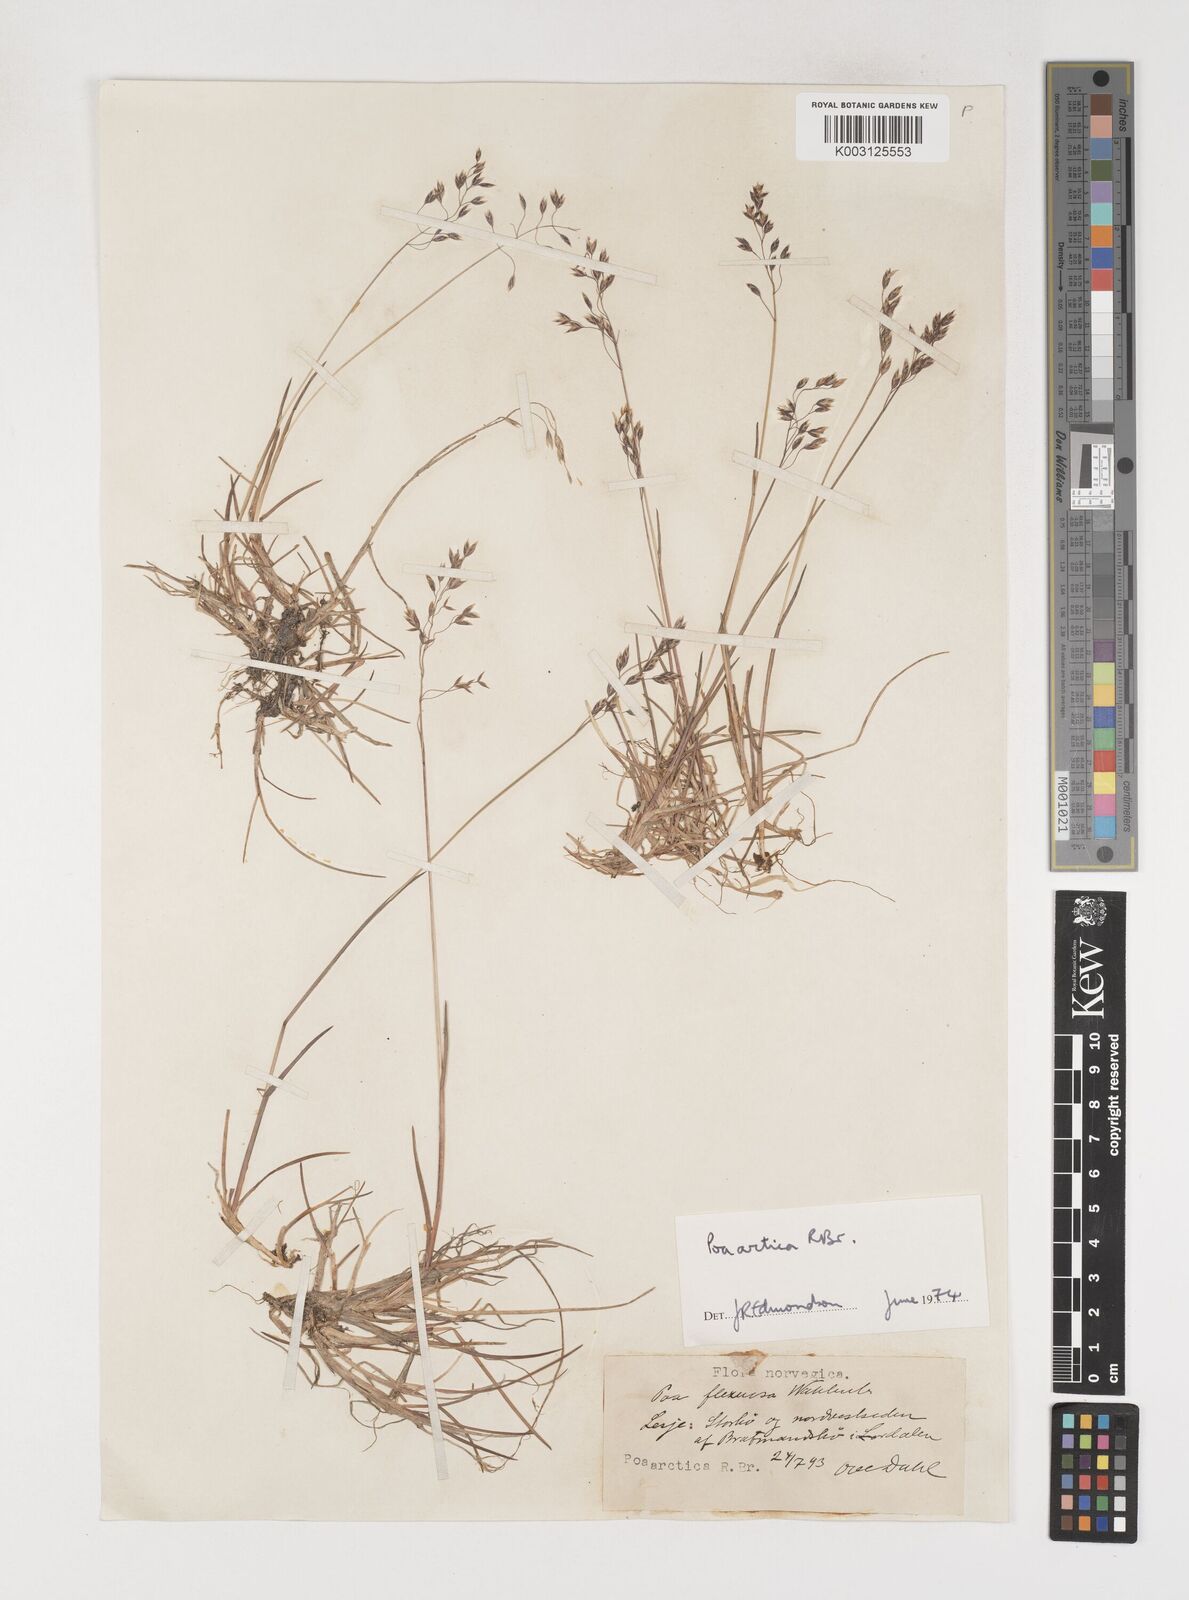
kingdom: Plantae
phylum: Tracheophyta
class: Liliopsida
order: Poales
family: Poaceae
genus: Poa
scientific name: Poa arctica
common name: Arctic bluegrass
